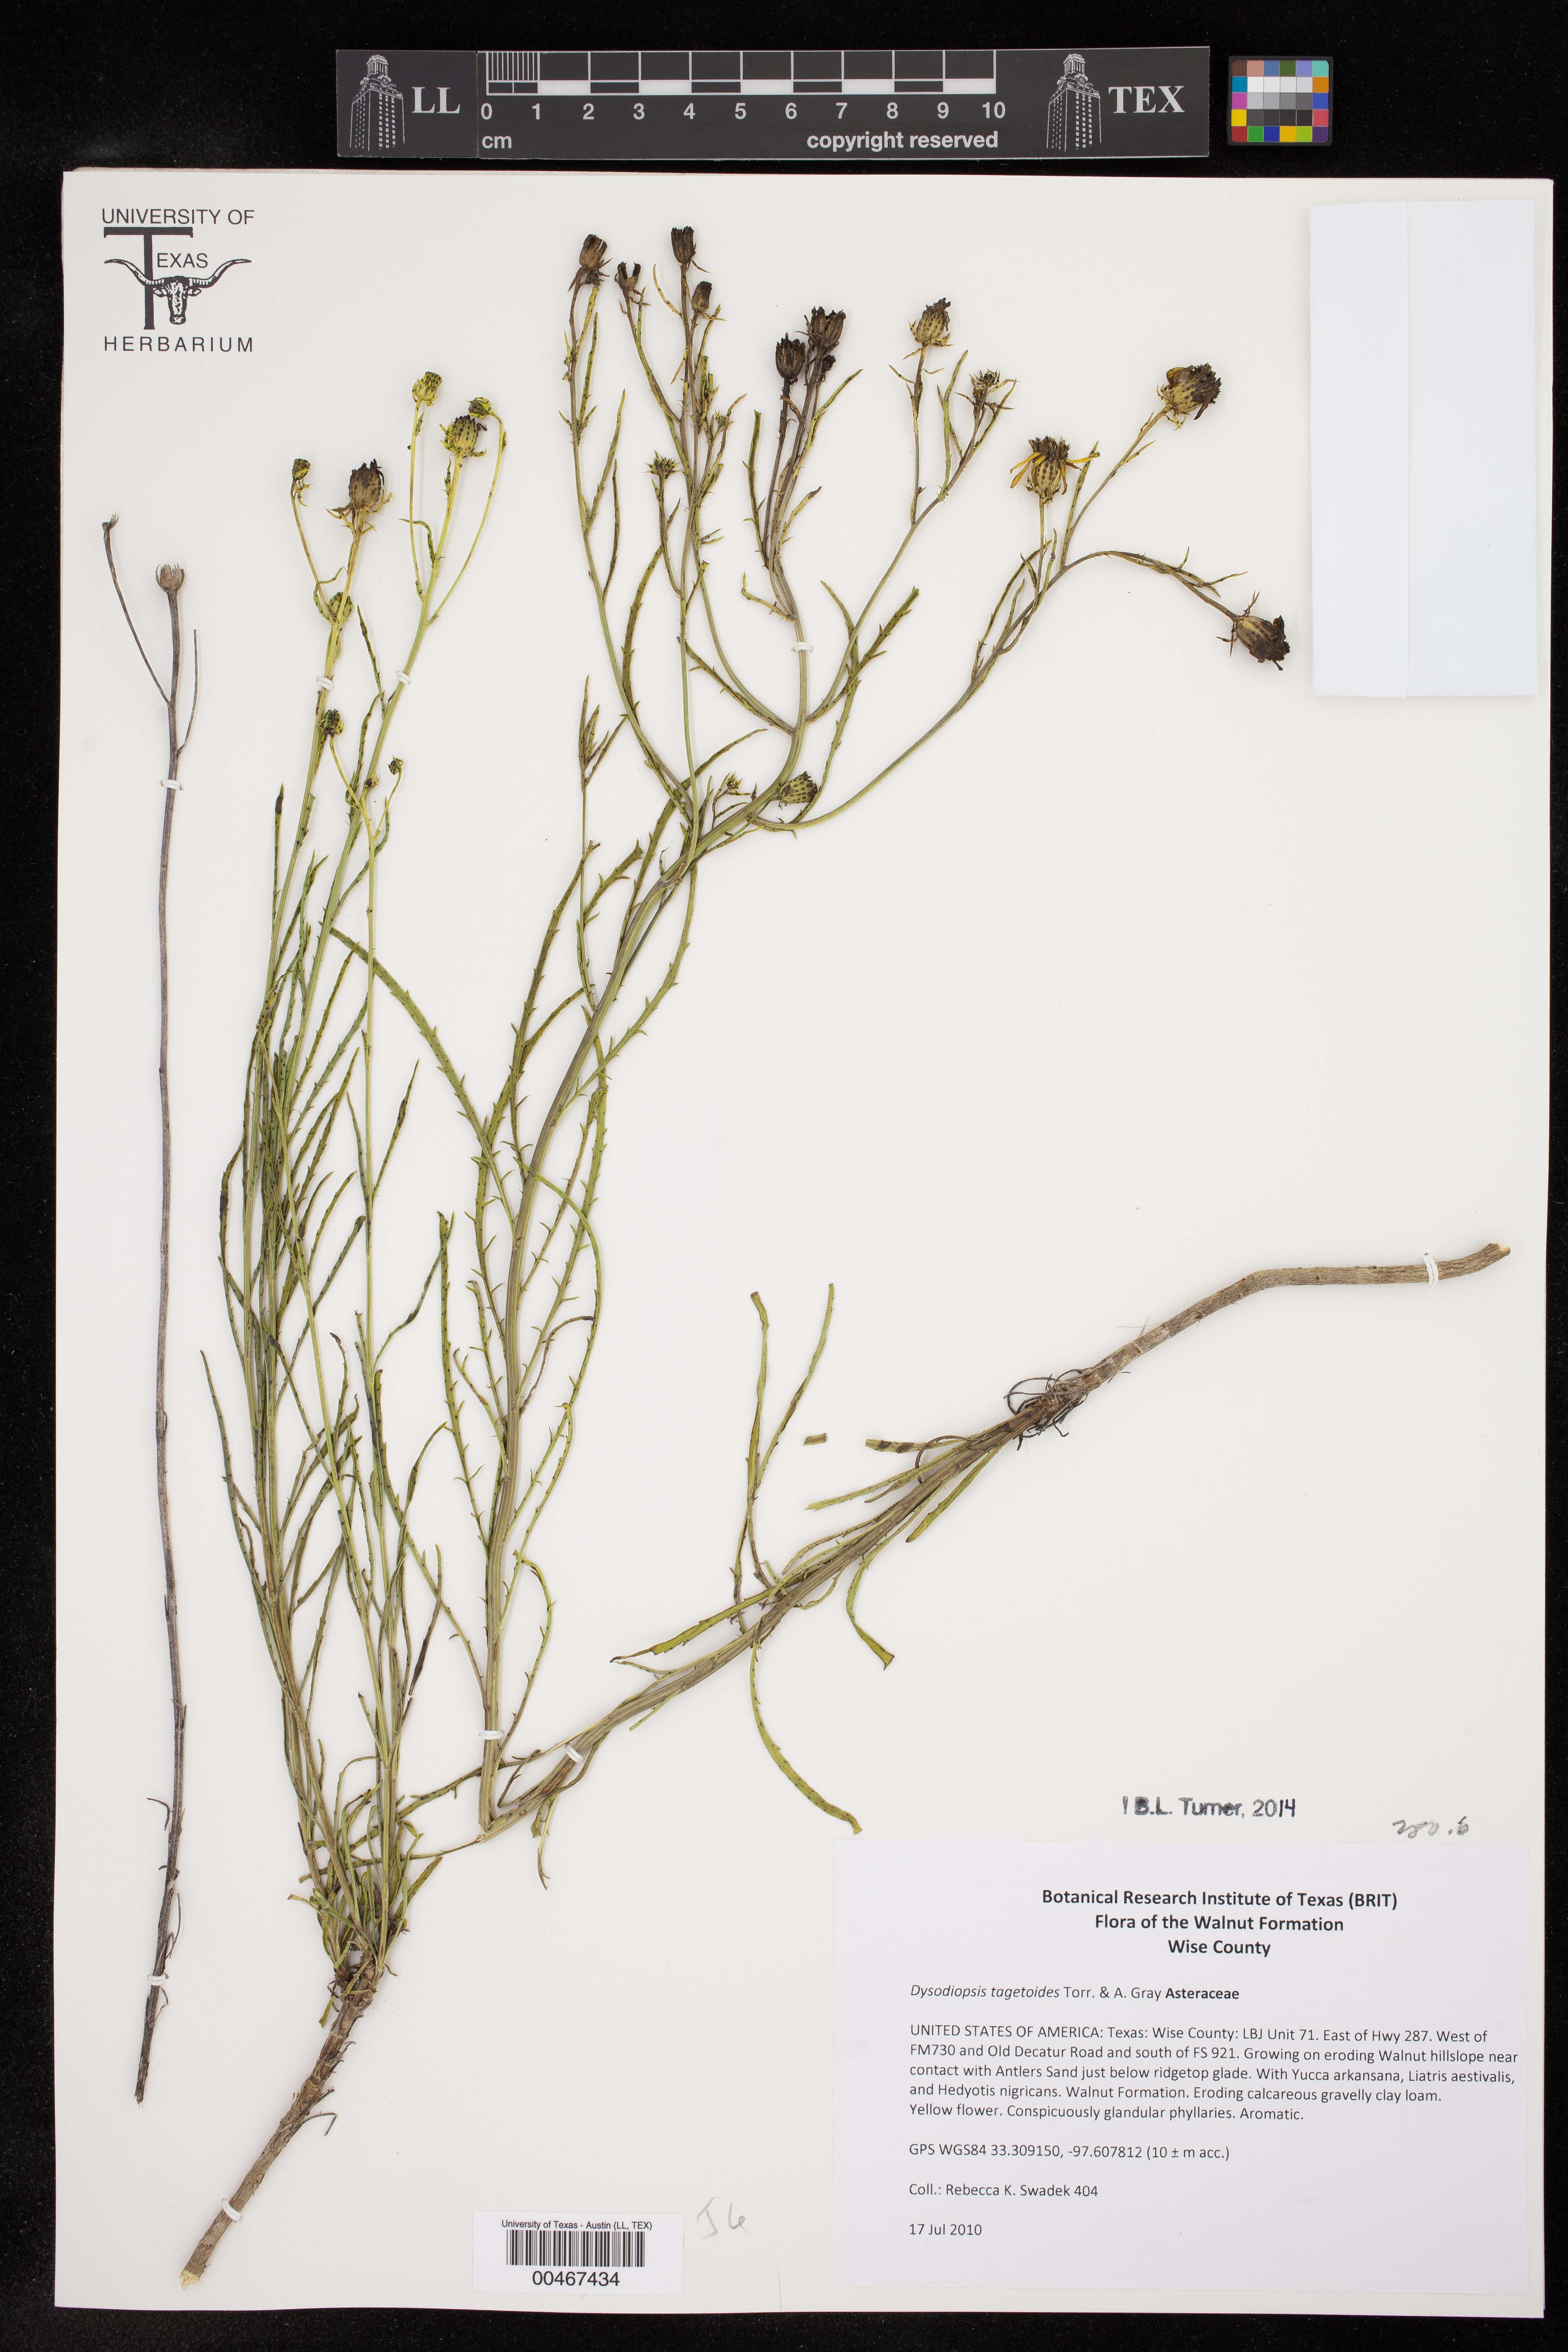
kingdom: Plantae
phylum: Tracheophyta
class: Magnoliopsida
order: Asterales
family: Asteraceae
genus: Dysodiopsis
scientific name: Dysodiopsis tagetoides
